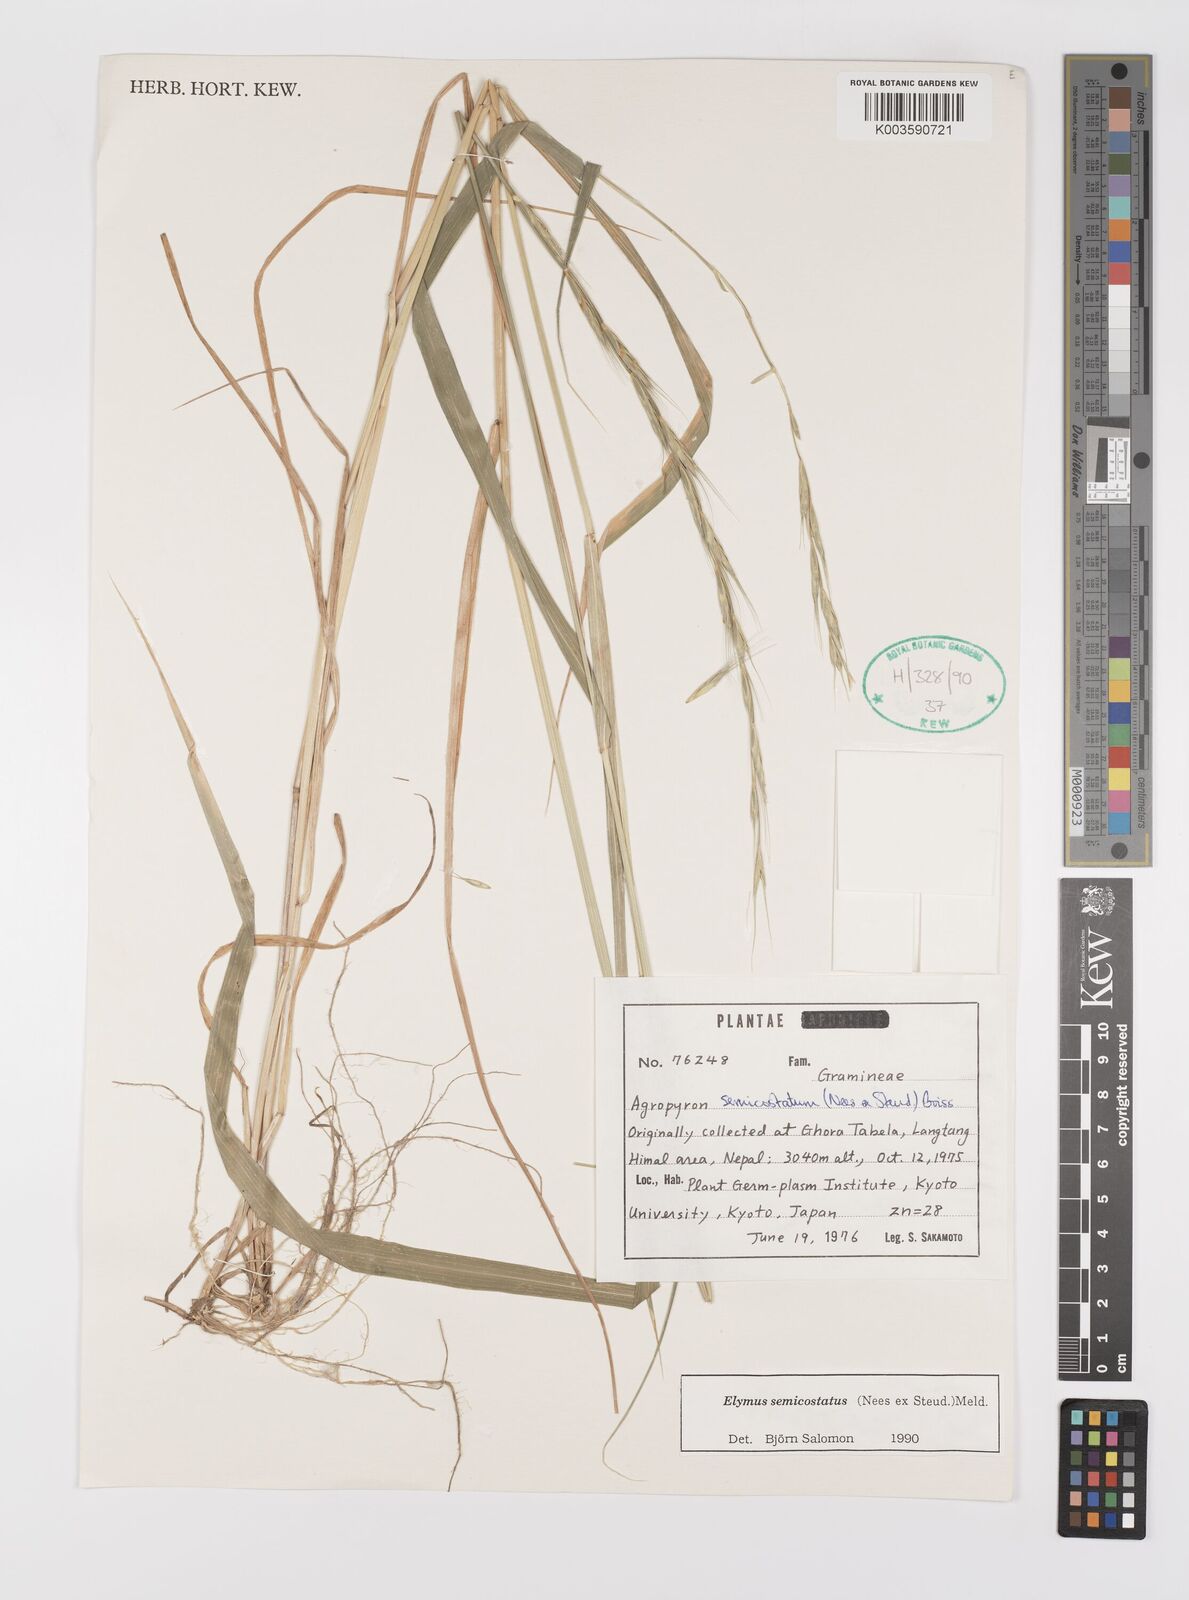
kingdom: Plantae
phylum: Tracheophyta
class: Liliopsida
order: Poales
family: Poaceae
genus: Elymus
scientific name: Elymus semicostatus
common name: Drooping wildrye
